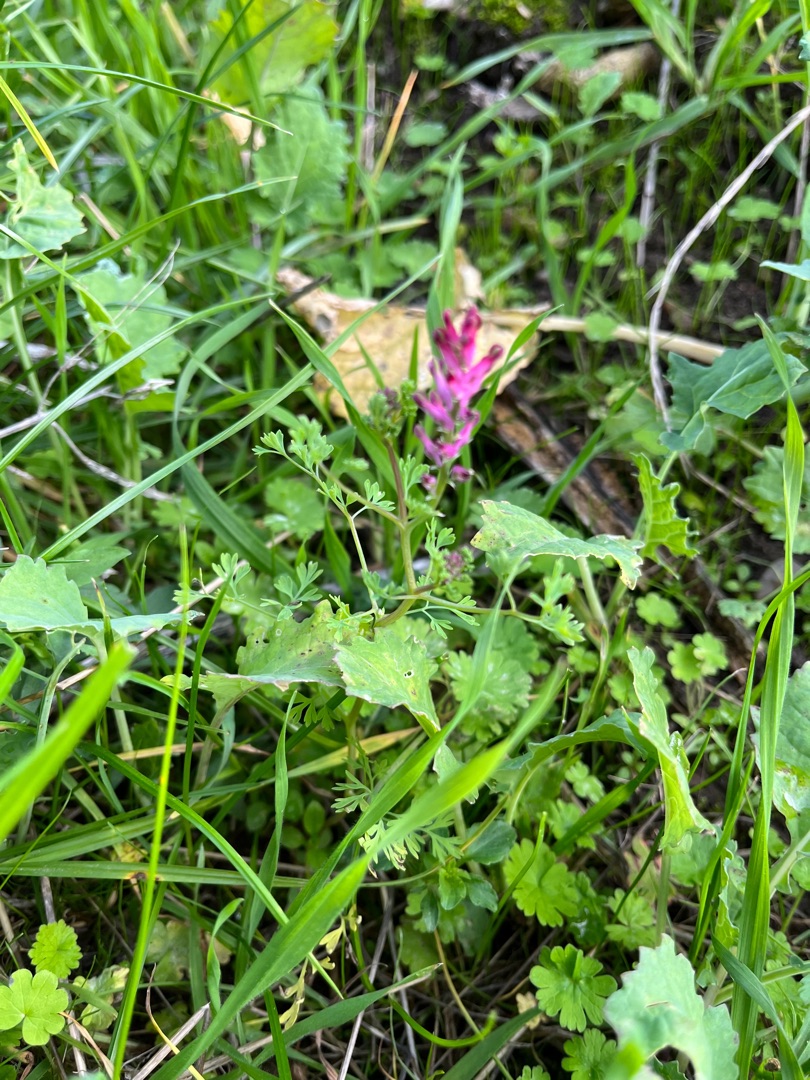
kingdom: Plantae
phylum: Tracheophyta
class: Magnoliopsida
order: Ranunculales
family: Papaveraceae
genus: Fumaria
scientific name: Fumaria officinalis
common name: Læge-jordrøg
